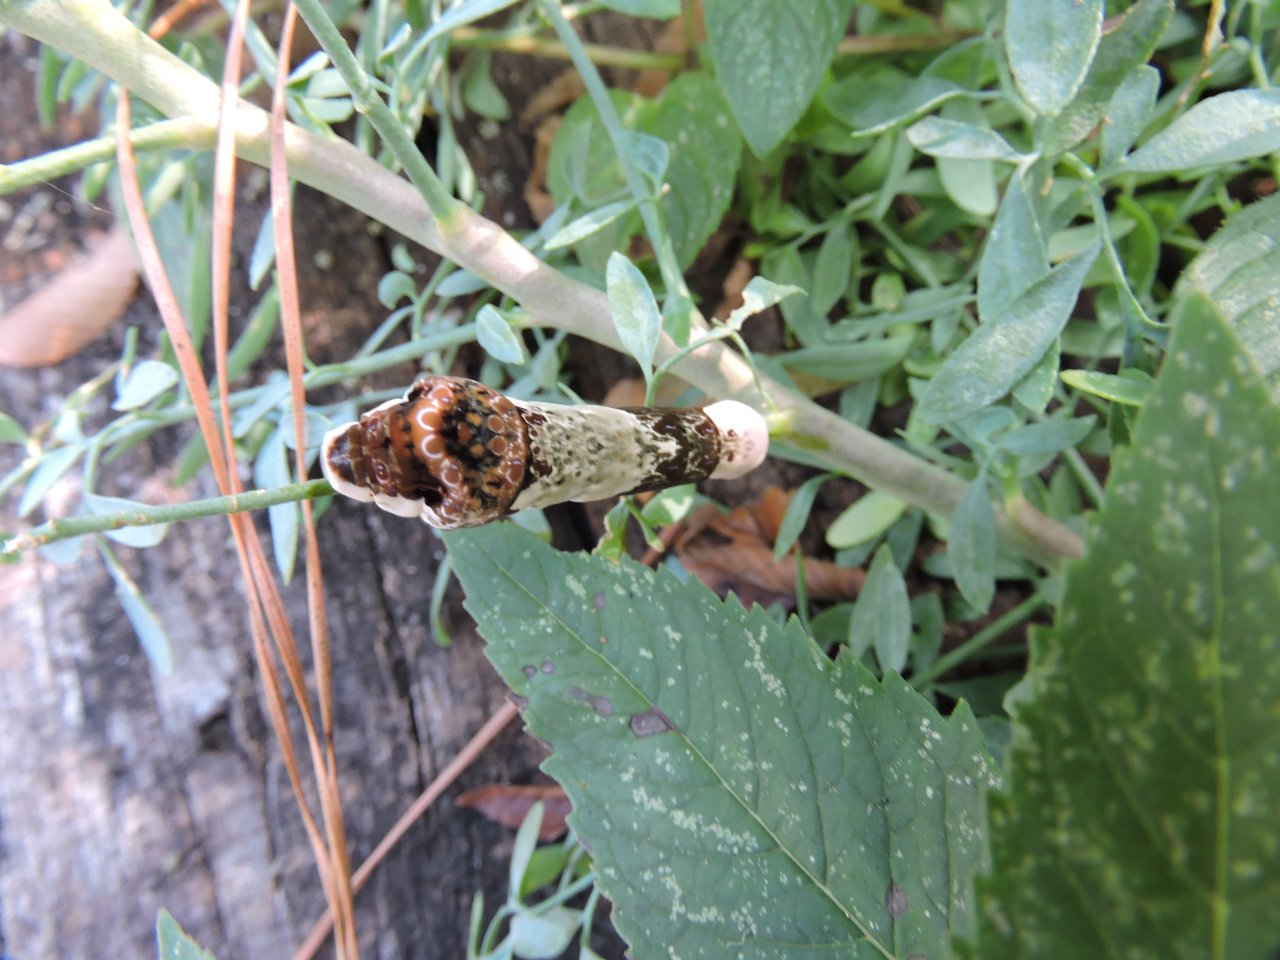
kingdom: Animalia
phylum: Arthropoda
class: Insecta
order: Lepidoptera
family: Papilionidae
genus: Papilio
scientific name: Papilio cresphontes
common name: Eastern Giant Swallowtail
